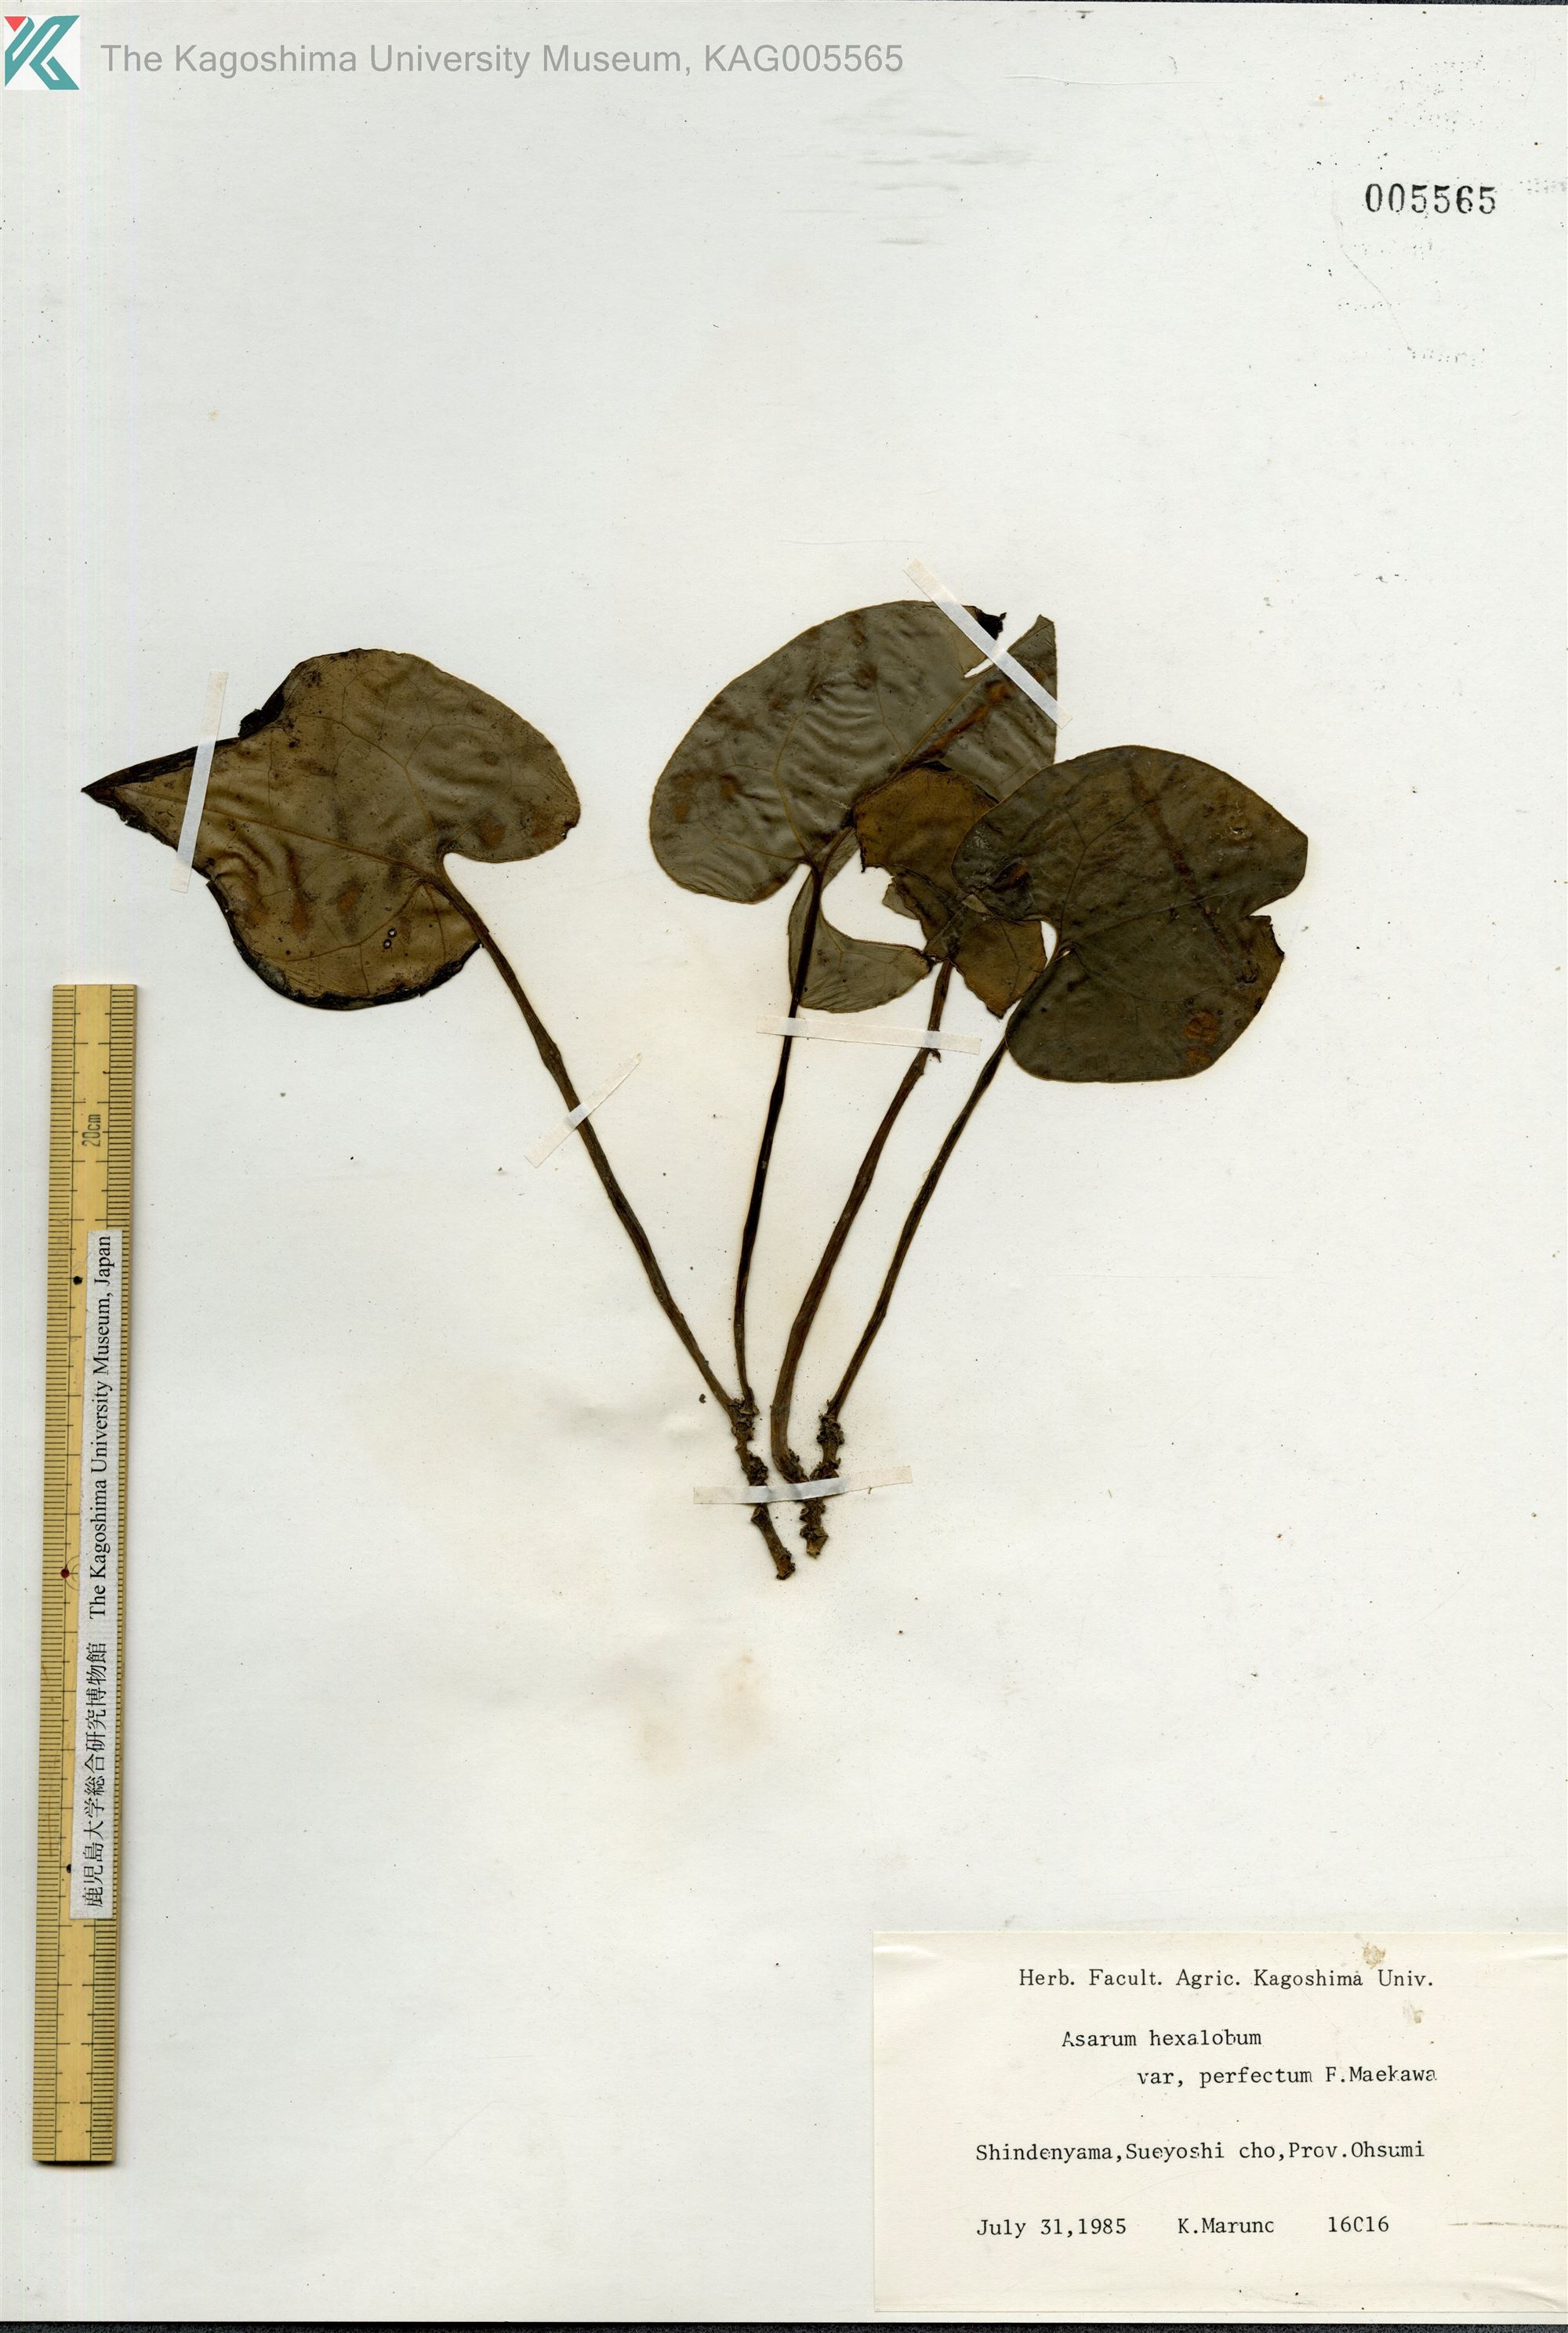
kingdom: Plantae
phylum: Tracheophyta
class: Magnoliopsida
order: Piperales
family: Aristolochiaceae
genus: Asarum
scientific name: Asarum hexalobum
